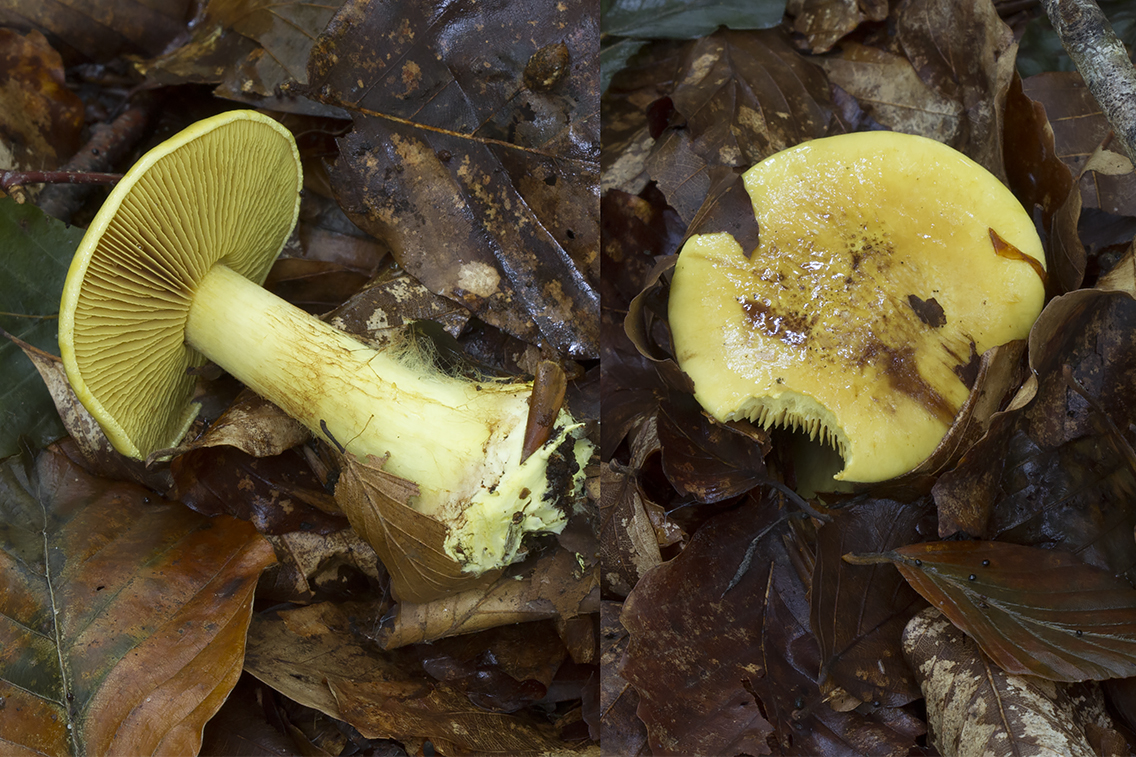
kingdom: Fungi
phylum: Basidiomycota
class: Agaricomycetes
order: Agaricales
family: Cortinariaceae
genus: Calonarius
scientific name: Calonarius splendens
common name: sirene-slørhat
